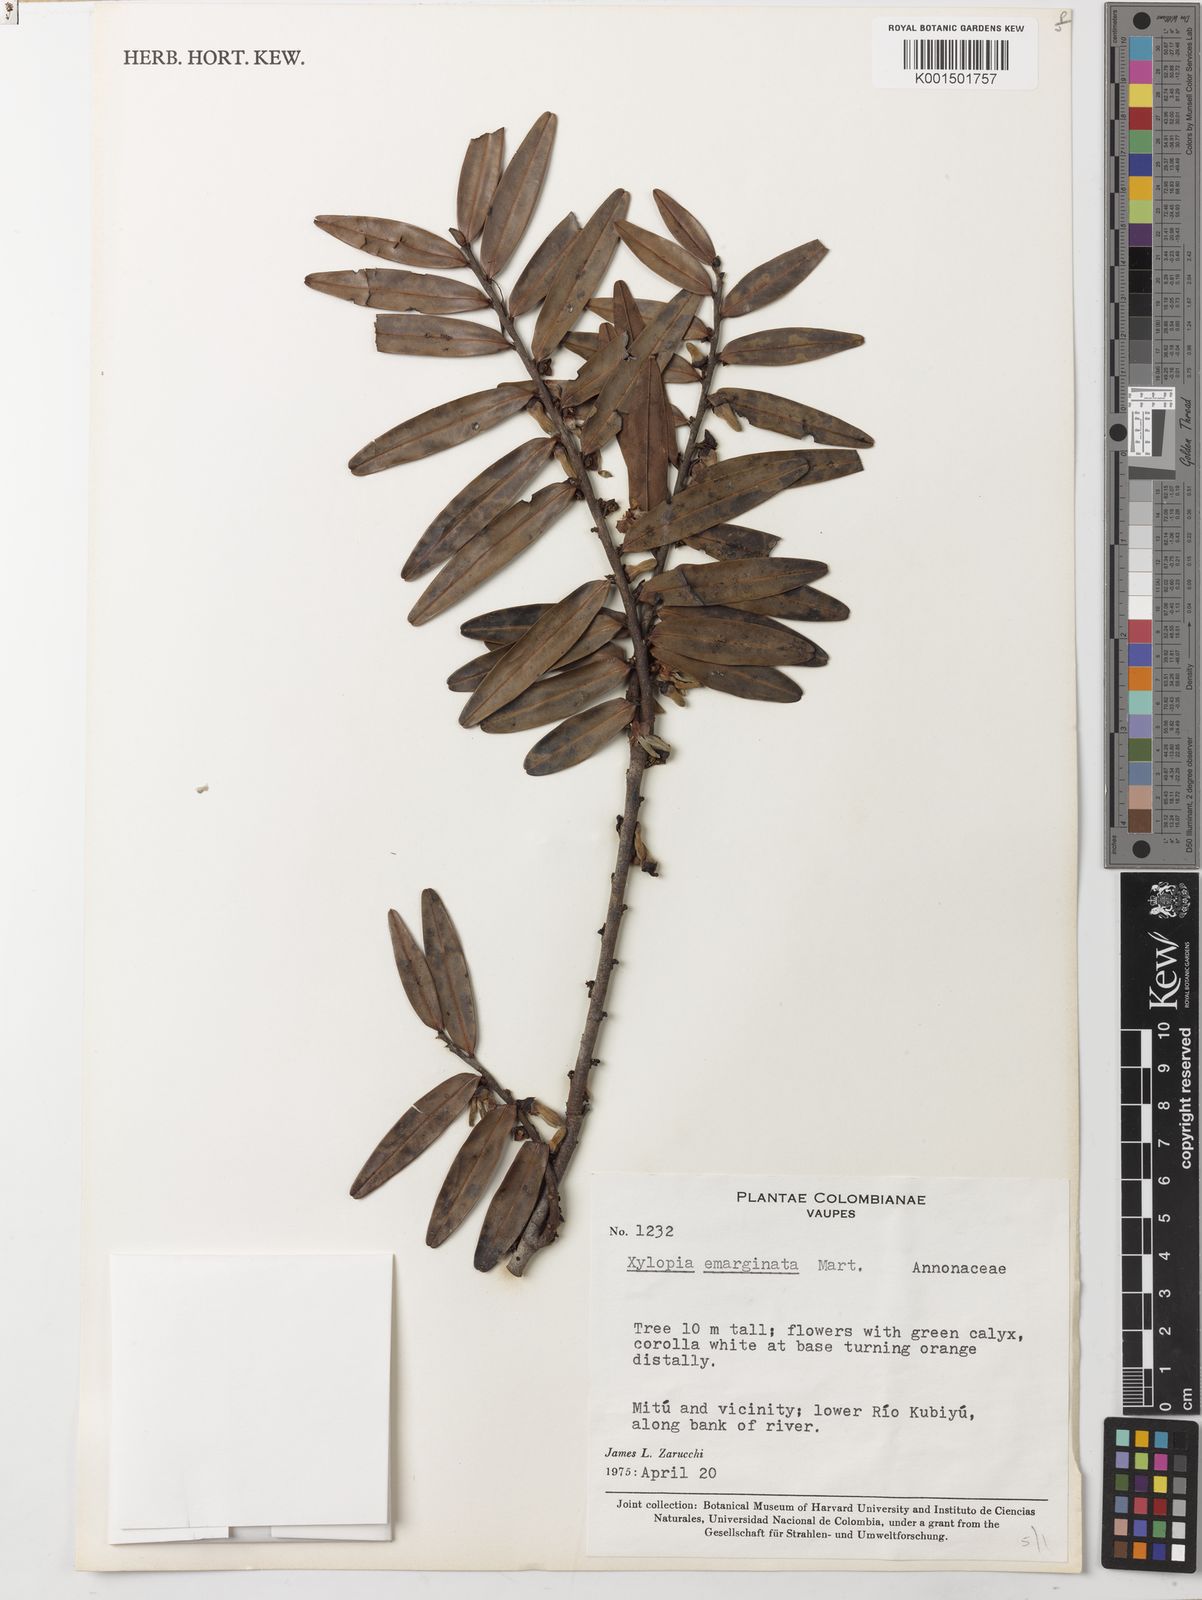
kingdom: Plantae
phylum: Tracheophyta
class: Magnoliopsida
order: Magnoliales
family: Annonaceae
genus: Xylopia
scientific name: Xylopia emarginata
